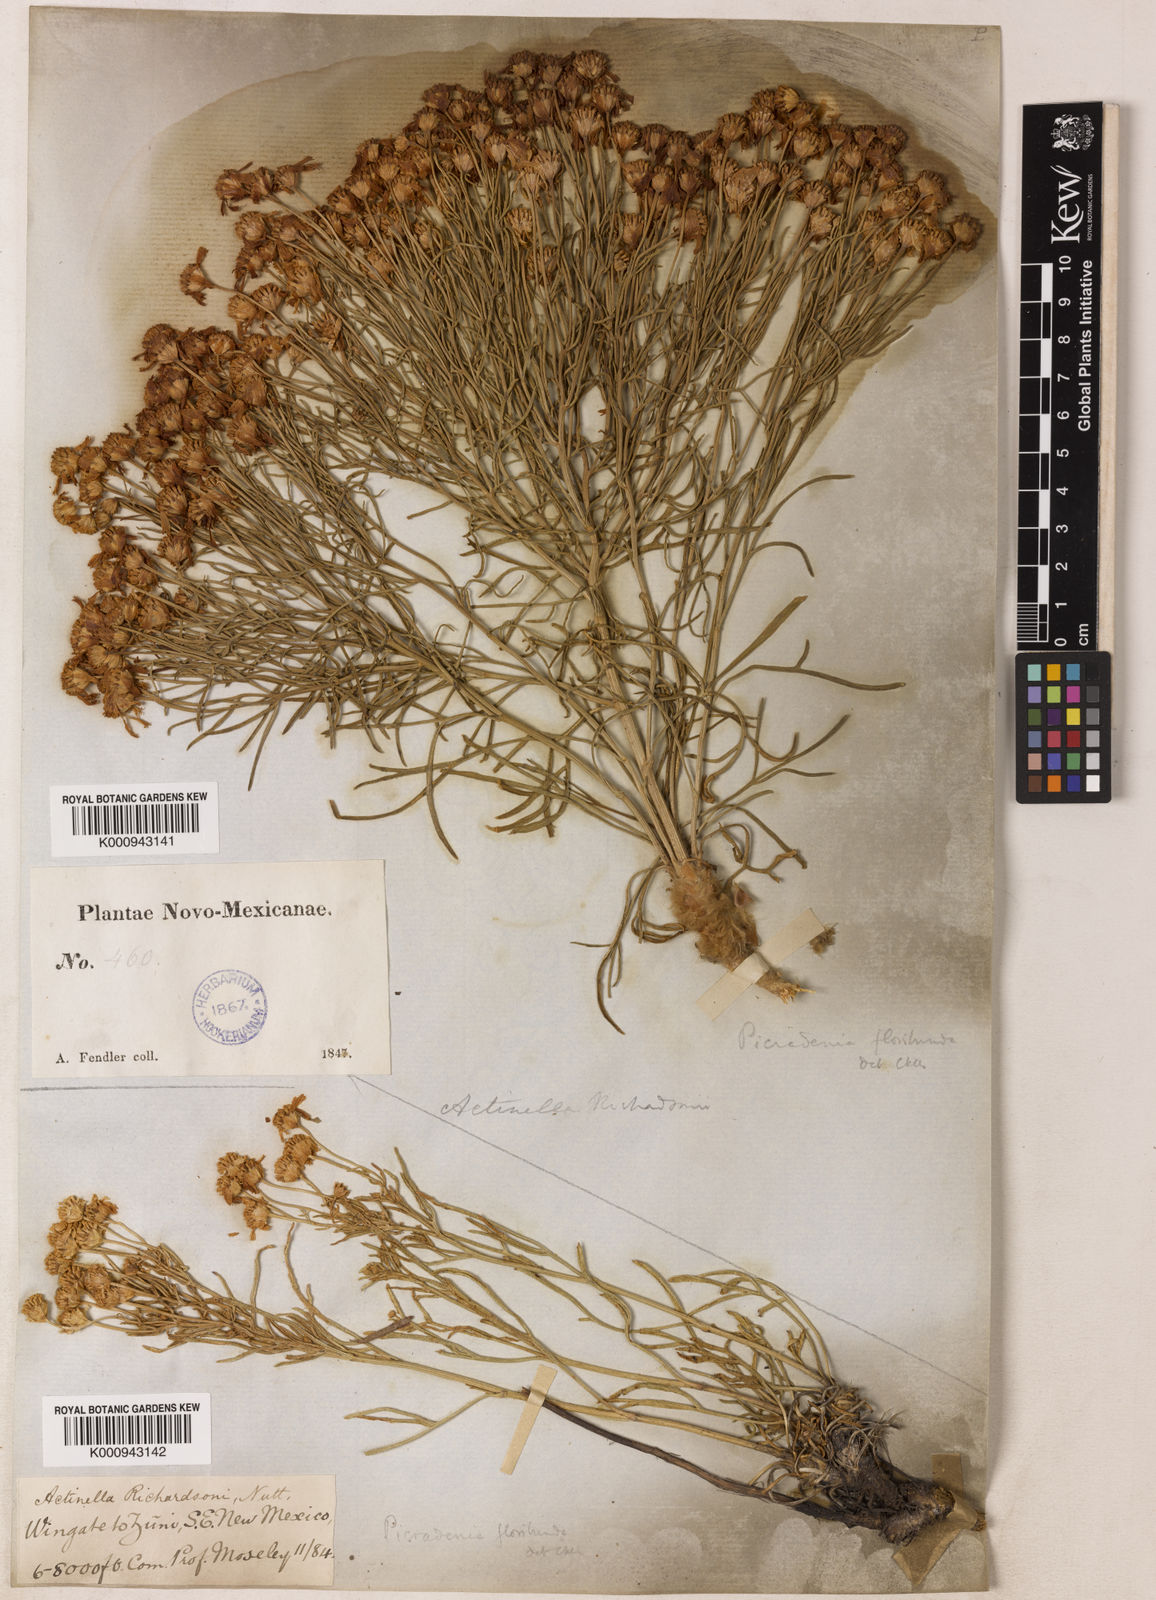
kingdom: Plantae
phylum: Tracheophyta
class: Magnoliopsida
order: Asterales
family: Asteraceae
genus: Baileya
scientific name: Baileya
